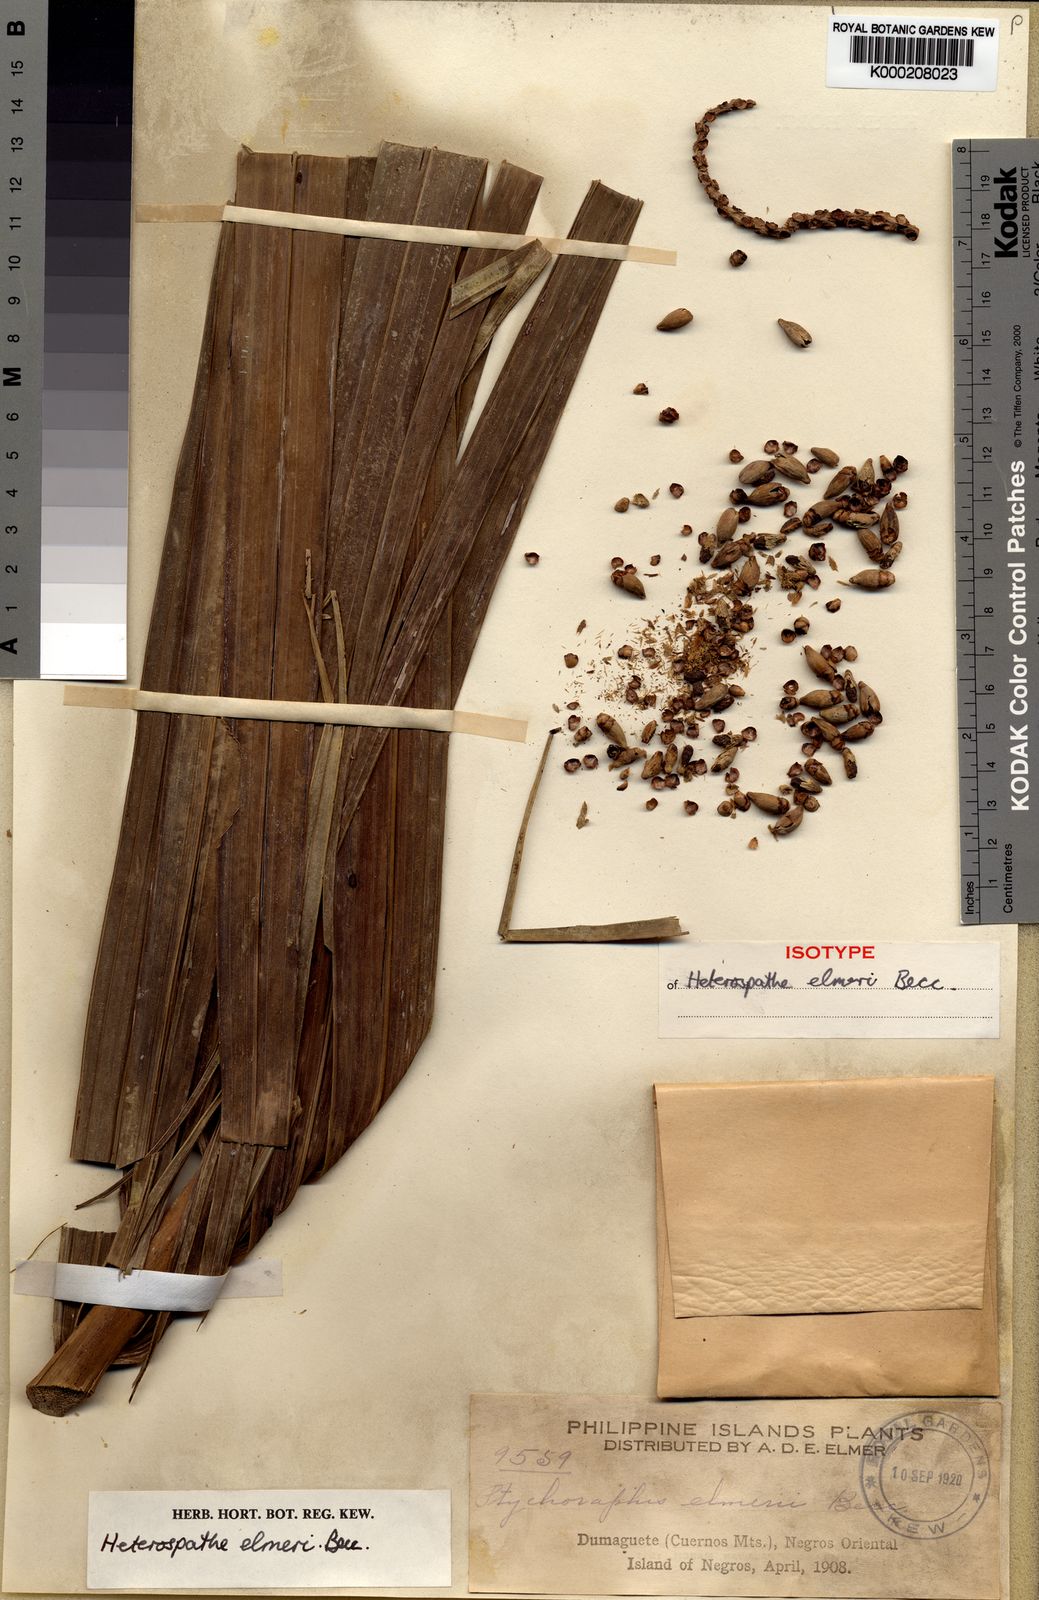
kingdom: Plantae
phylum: Tracheophyta
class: Liliopsida
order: Arecales
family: Arecaceae
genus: Heterospathe
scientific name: Heterospathe elmeri
